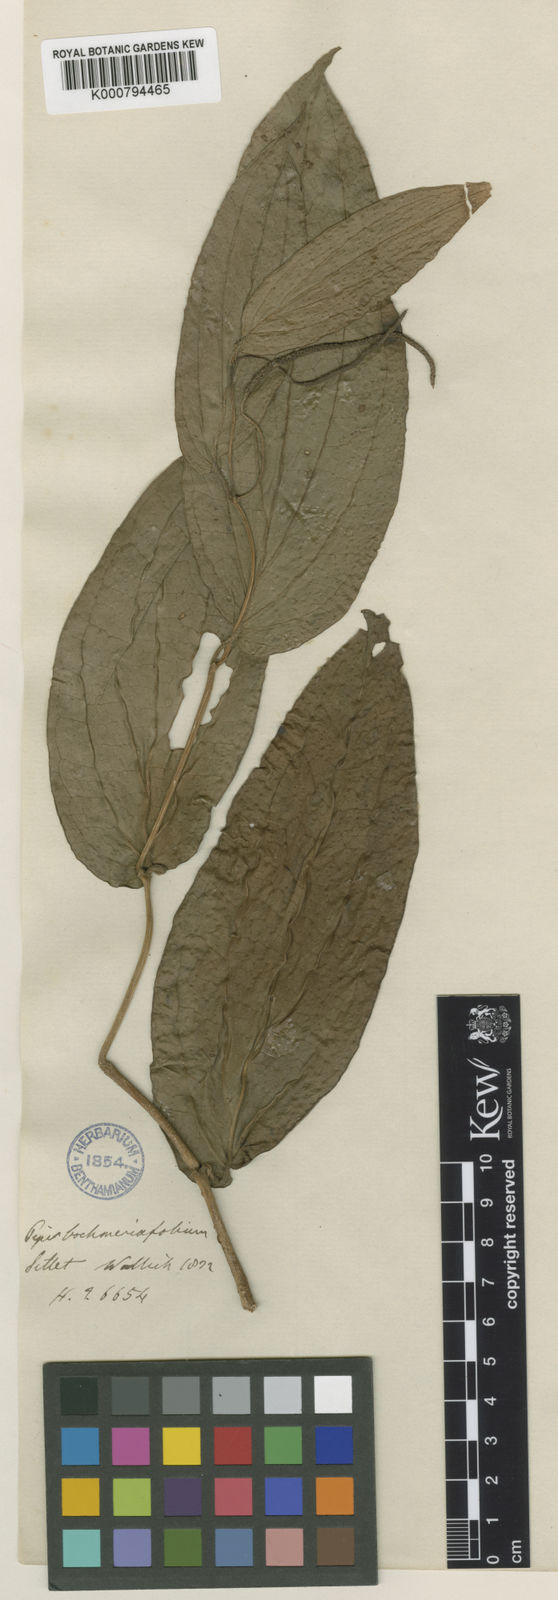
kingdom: Plantae
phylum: Tracheophyta
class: Magnoliopsida
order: Piperales
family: Piperaceae
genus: Piper
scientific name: Piper
